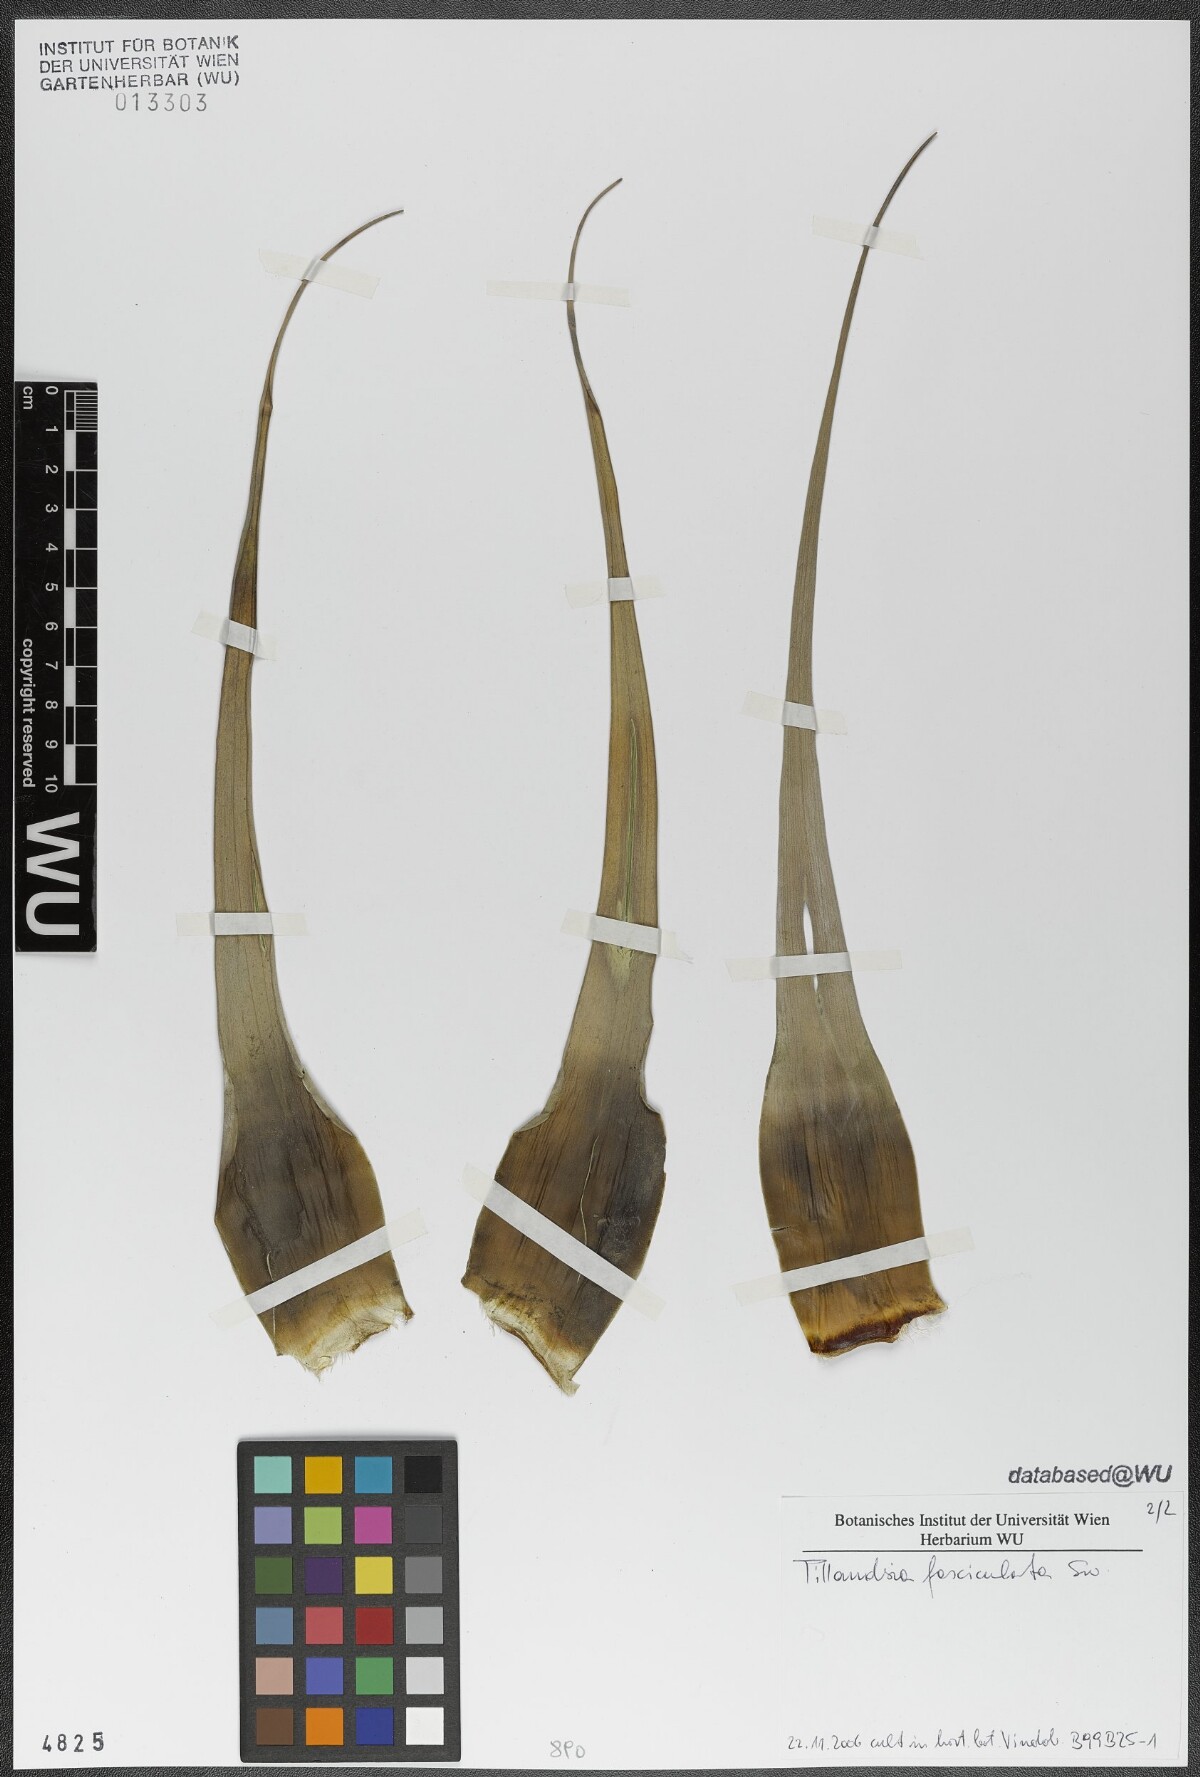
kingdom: Plantae
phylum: Tracheophyta
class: Liliopsida
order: Poales
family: Bromeliaceae
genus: Tillandsia
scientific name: Tillandsia fasciculata
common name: Giant airplant
